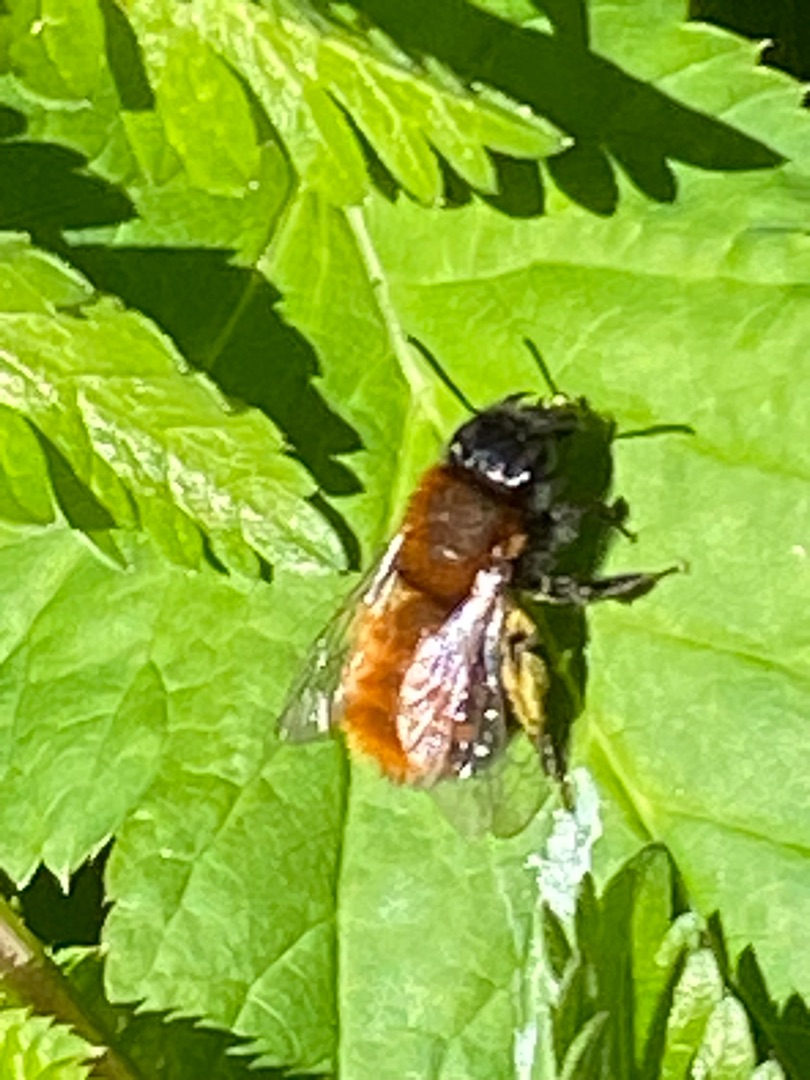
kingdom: Animalia
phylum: Arthropoda
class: Insecta
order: Hymenoptera
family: Andrenidae
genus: Andrena
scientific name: Andrena fulva
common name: Rødpelset jordbi
